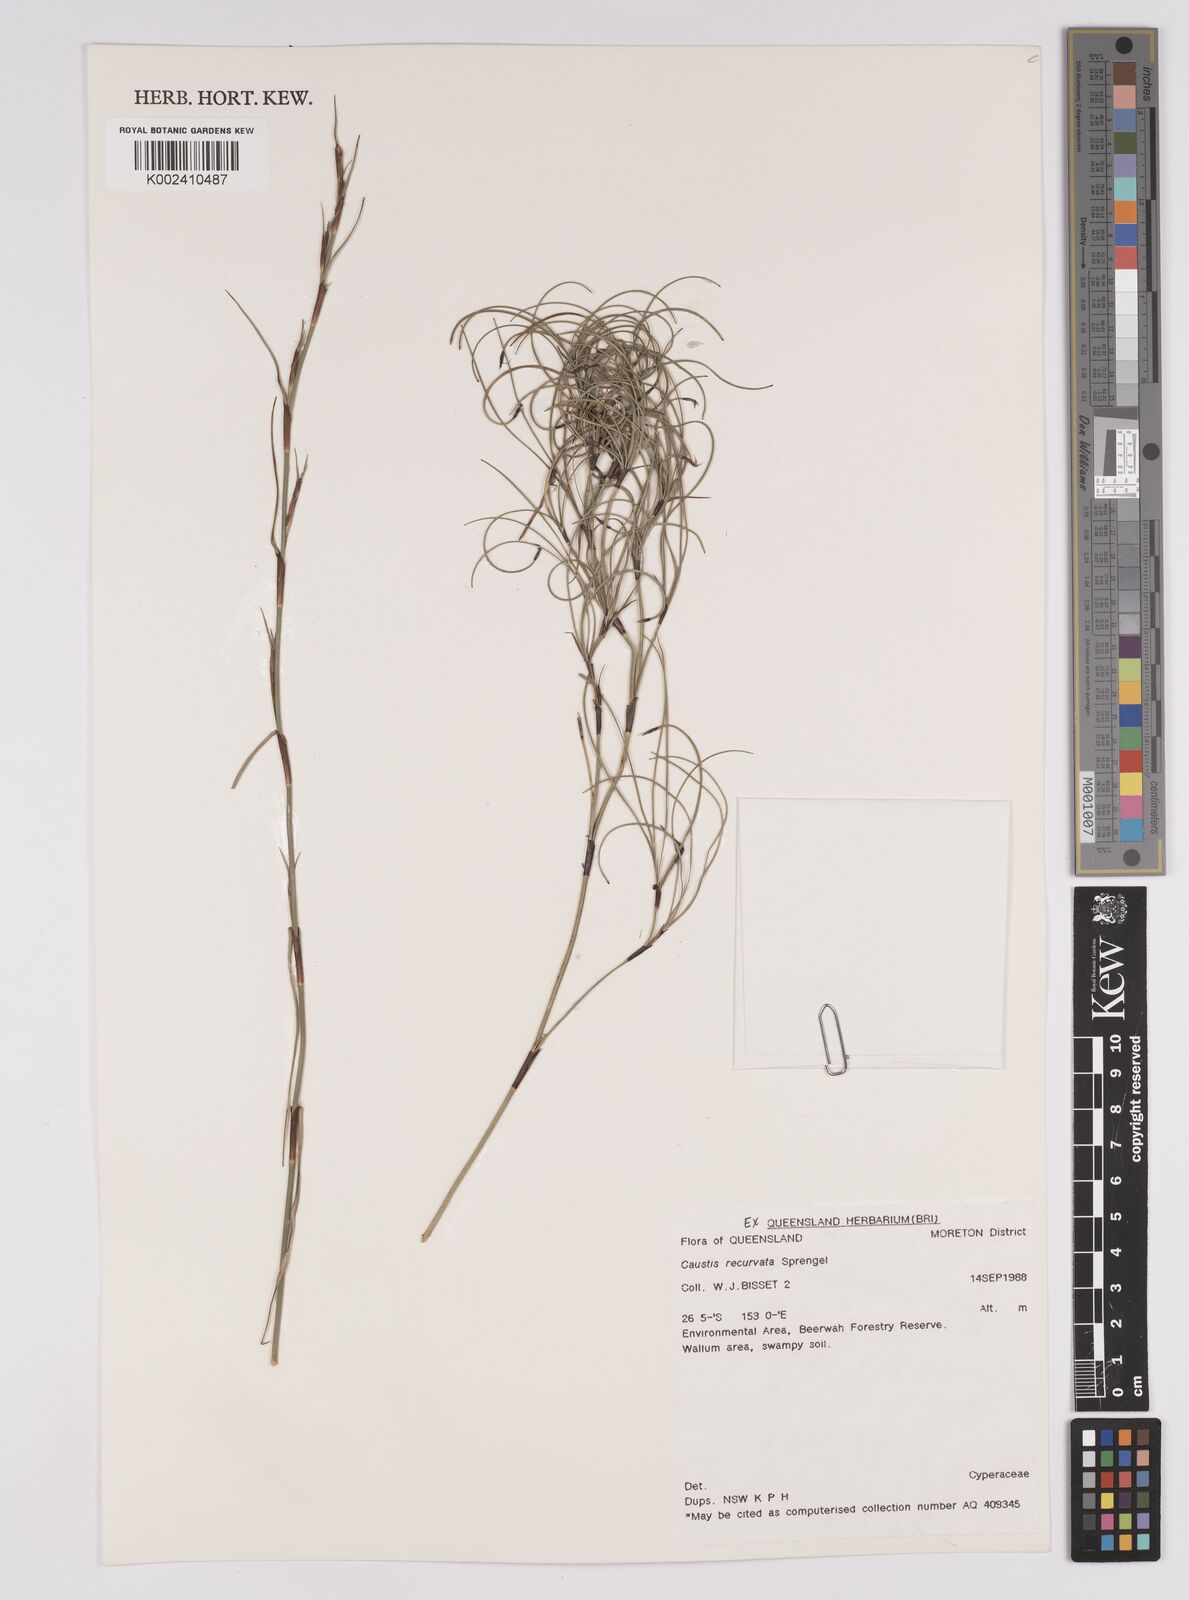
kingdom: Plantae
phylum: Tracheophyta
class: Liliopsida
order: Poales
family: Cyperaceae
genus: Caustis
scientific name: Caustis recurvata
